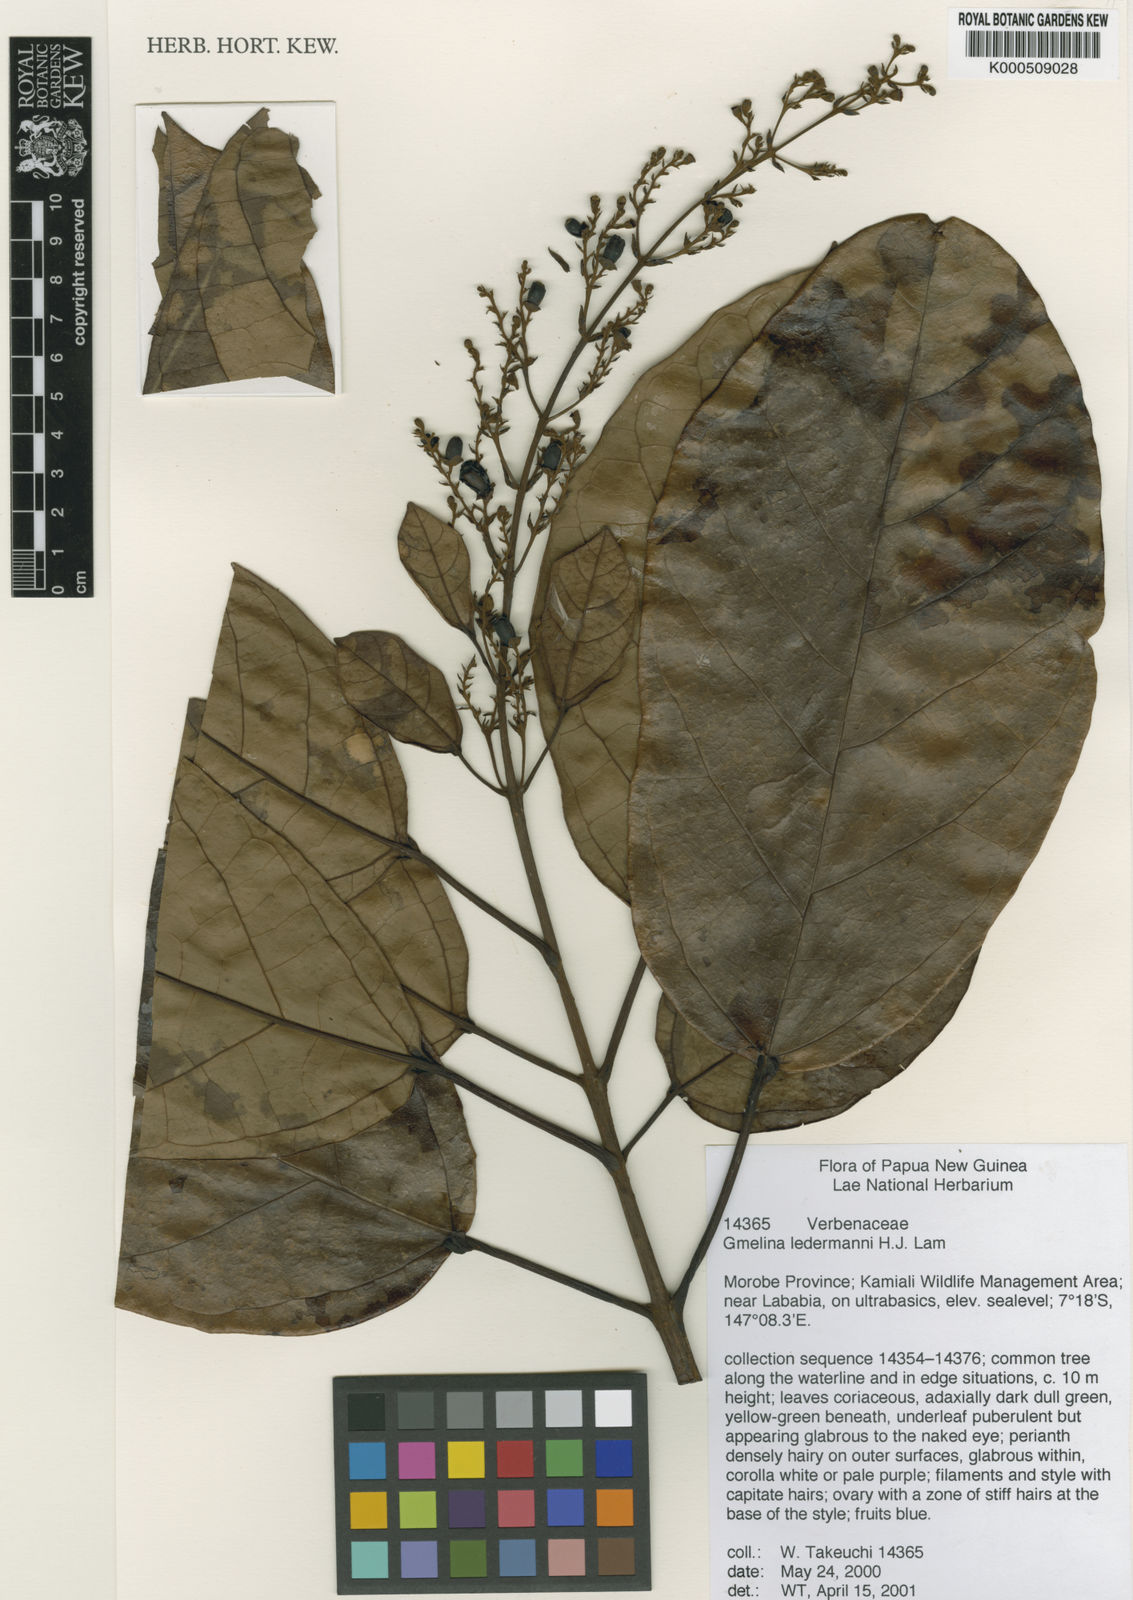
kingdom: Plantae
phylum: Tracheophyta
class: Magnoliopsida
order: Lamiales
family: Lamiaceae
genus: Gmelina
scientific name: Gmelina schlechteri
